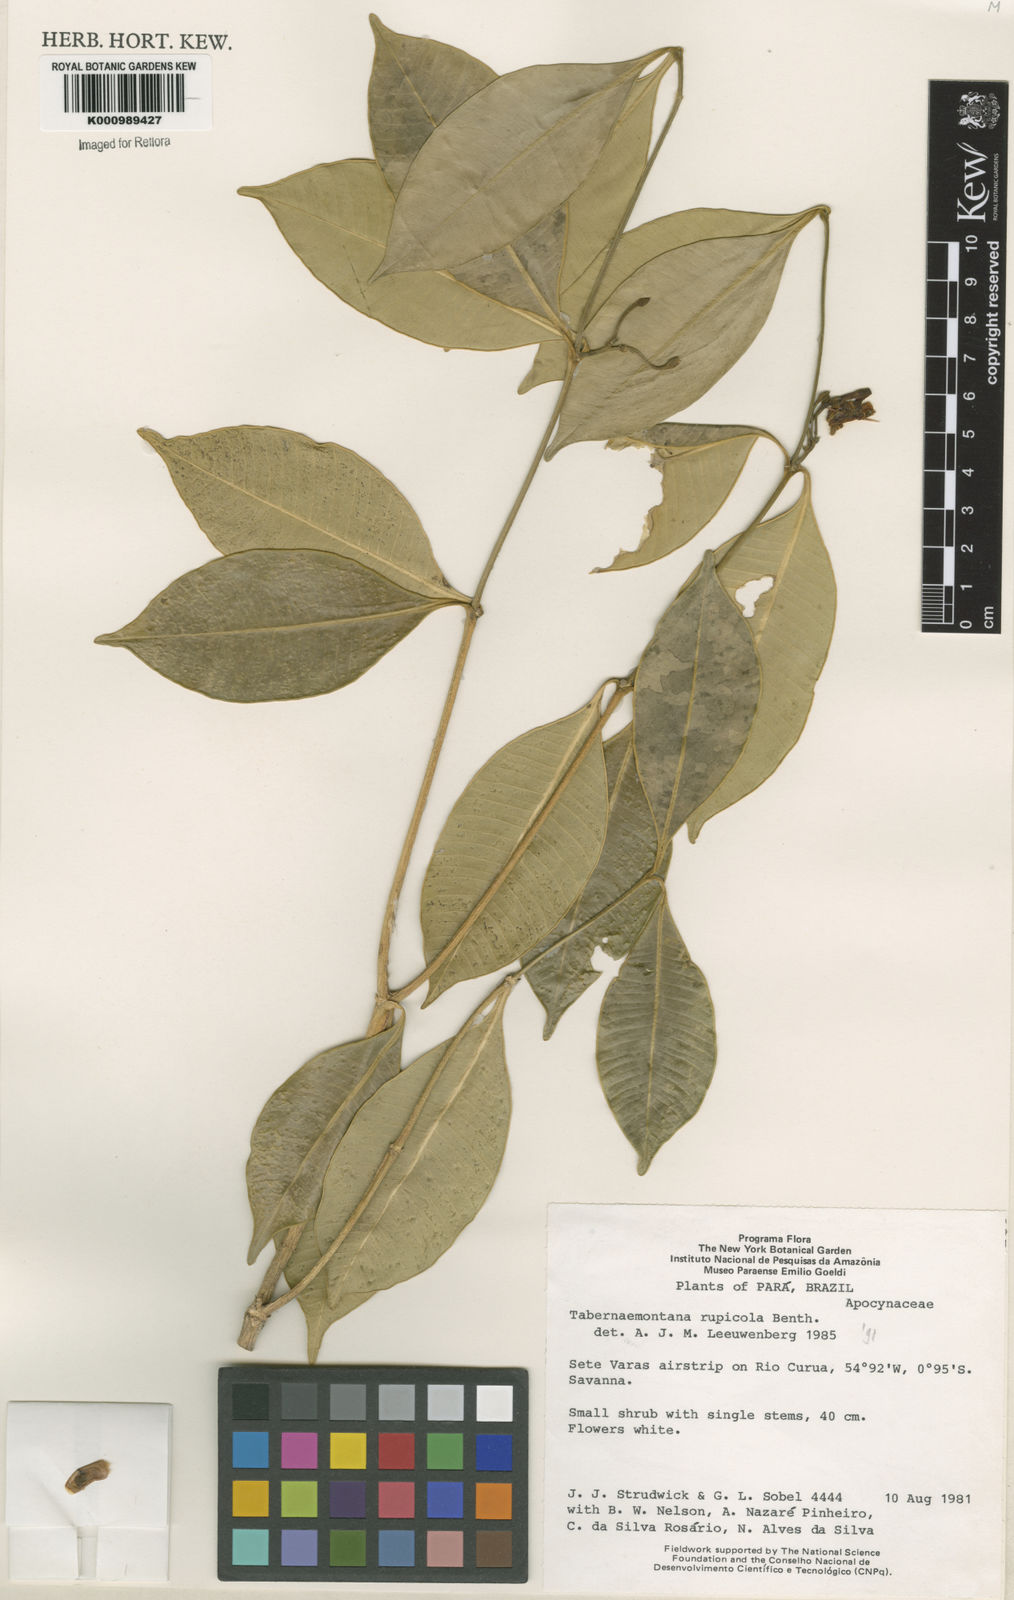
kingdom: Plantae
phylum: Tracheophyta
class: Magnoliopsida
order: Gentianales
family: Apocynaceae
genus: Tabernaemontana
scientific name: Tabernaemontana rupicola
